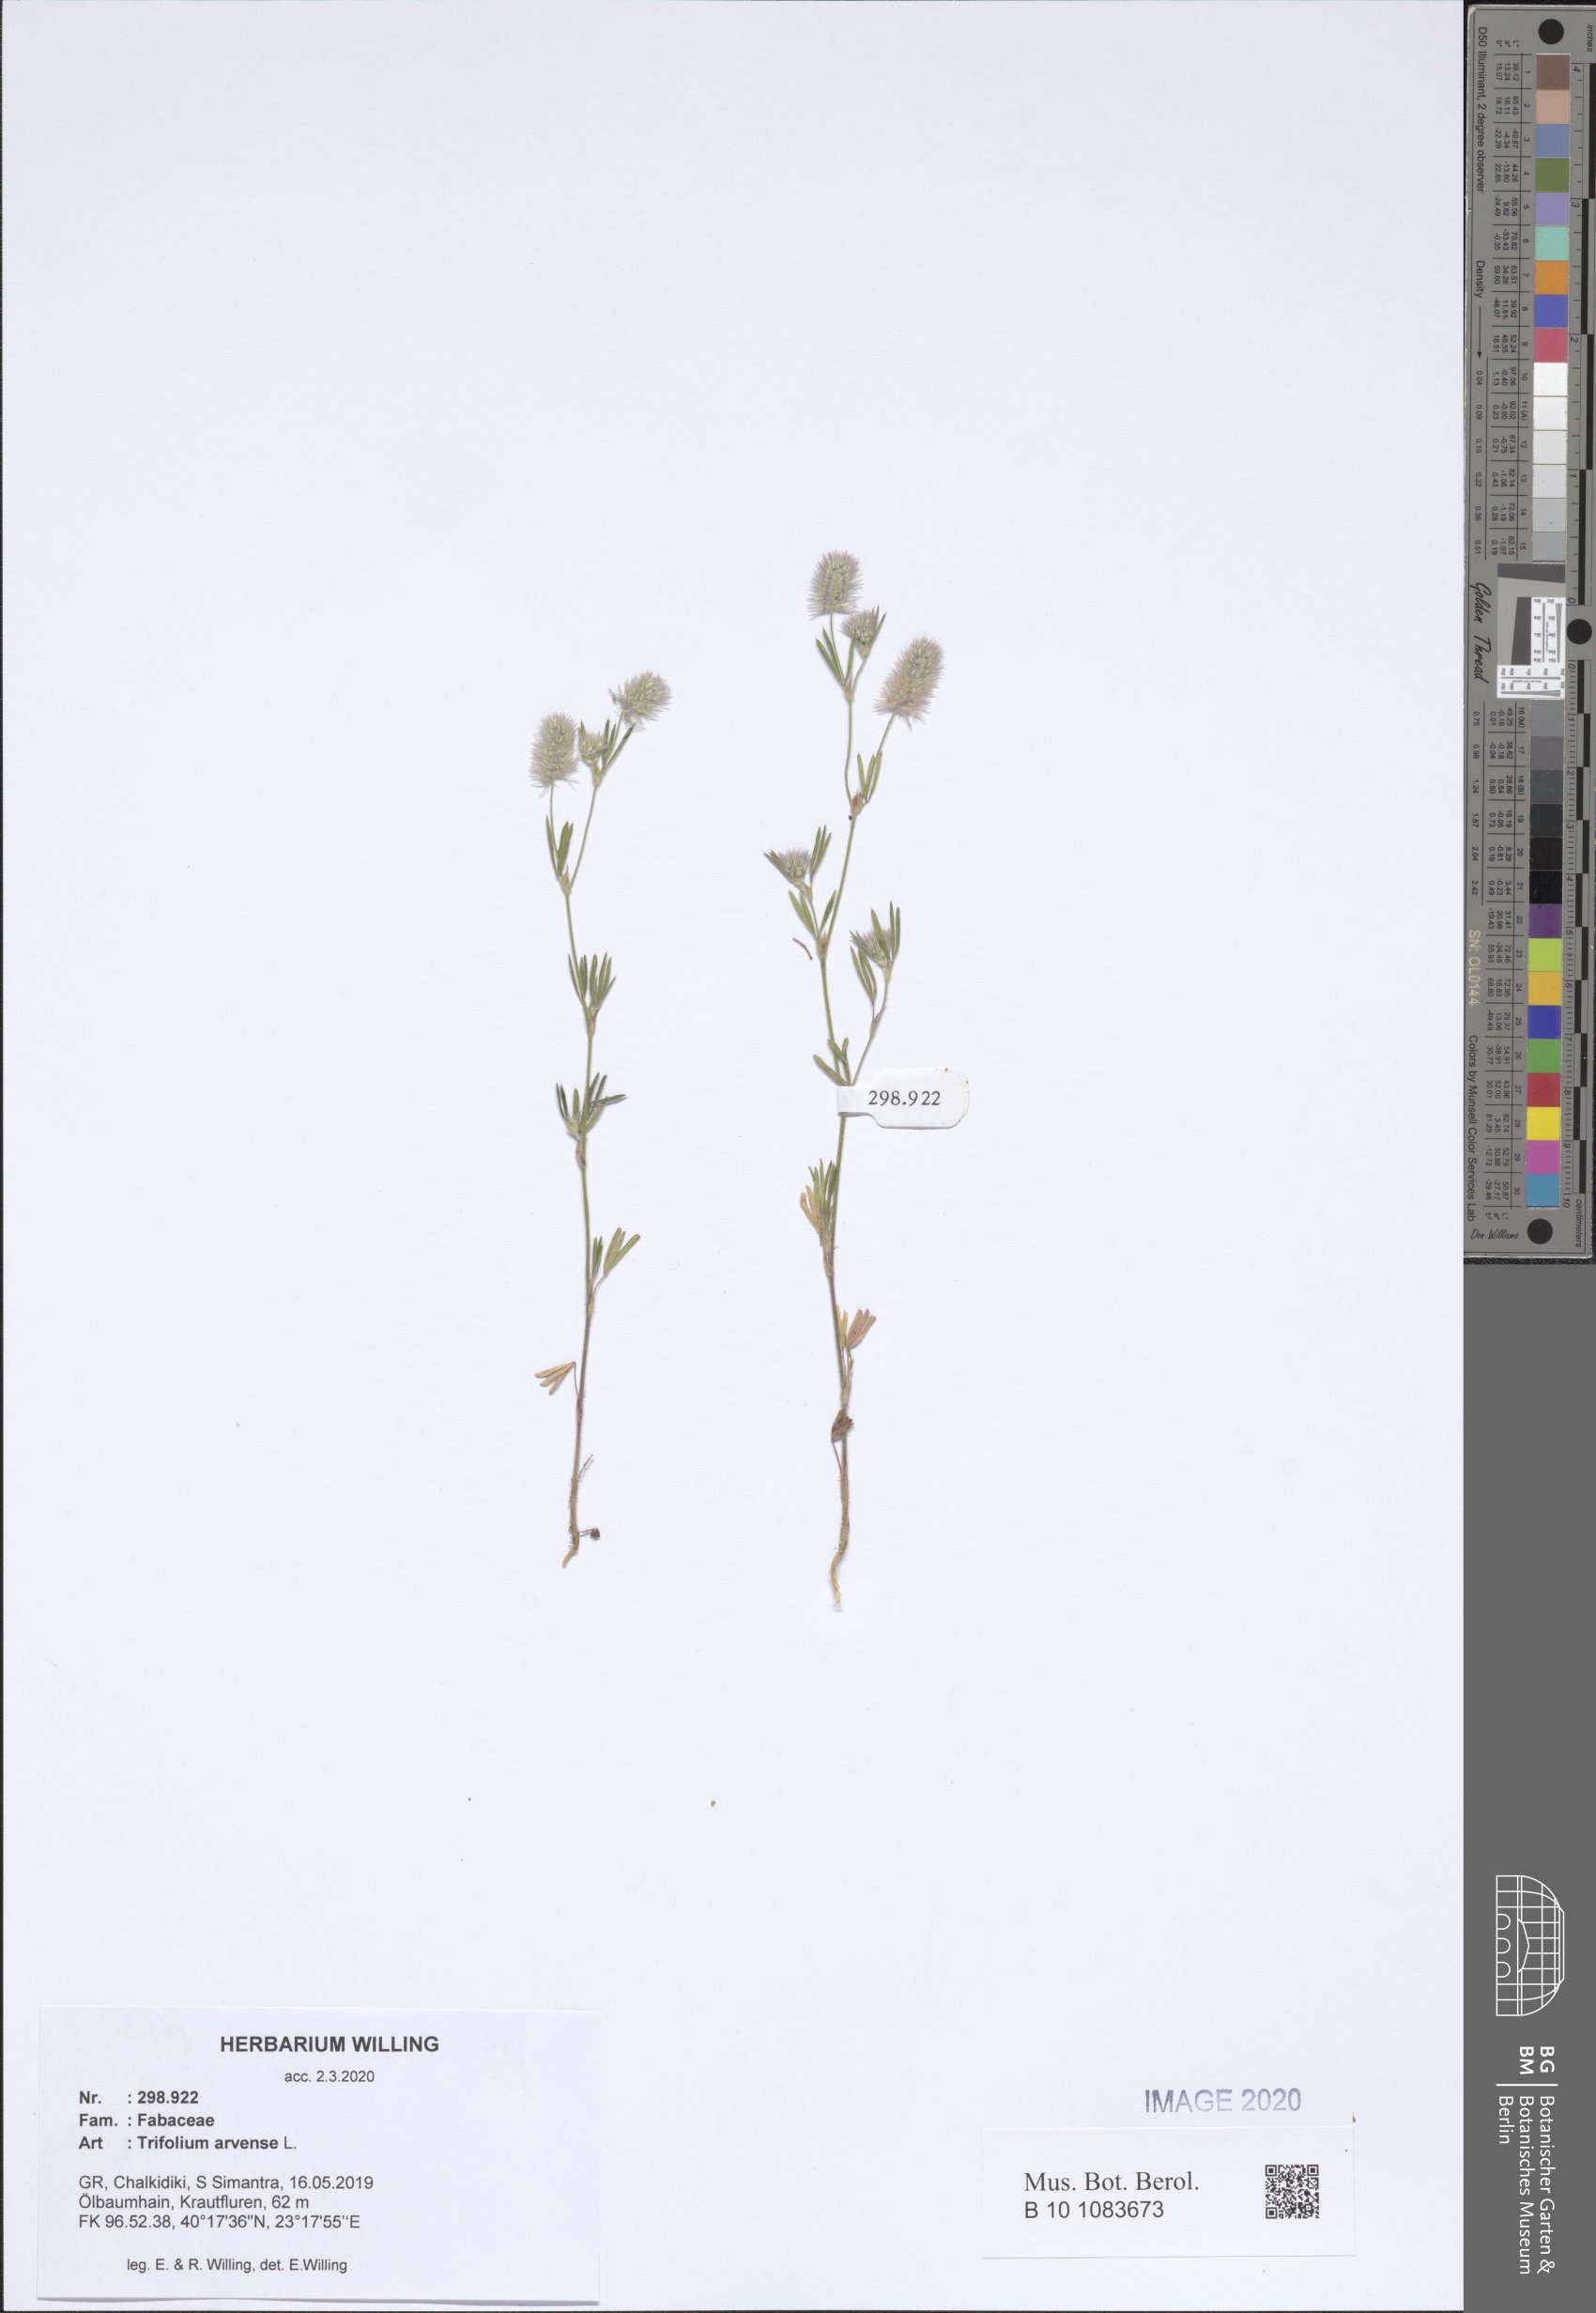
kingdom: Plantae
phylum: Tracheophyta
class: Magnoliopsida
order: Fabales
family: Fabaceae
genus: Trifolium
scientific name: Trifolium arvense
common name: Hare's-foot clover
